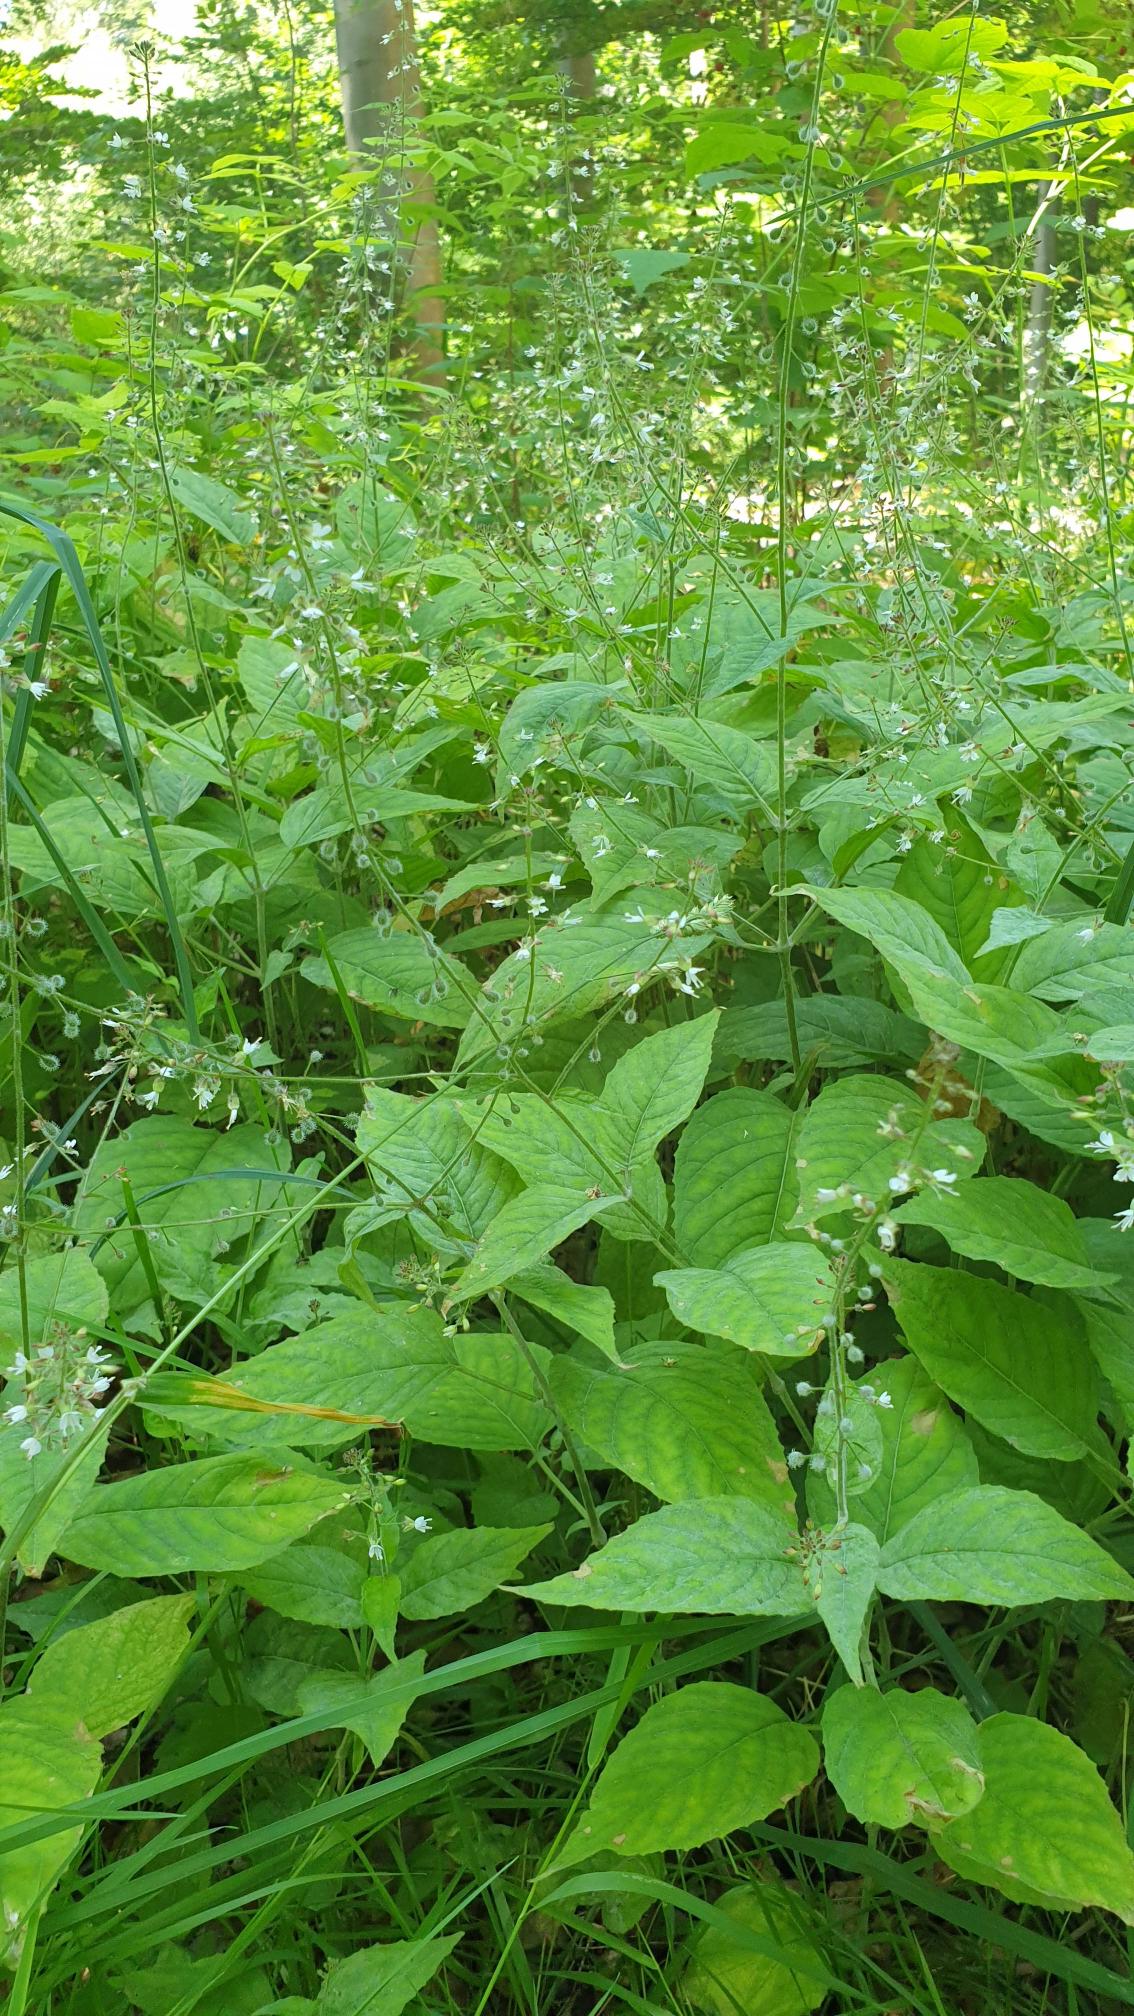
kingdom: Plantae
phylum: Tracheophyta
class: Magnoliopsida
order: Myrtales
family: Onagraceae
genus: Circaea
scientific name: Circaea lutetiana
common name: Dunet steffensurt
